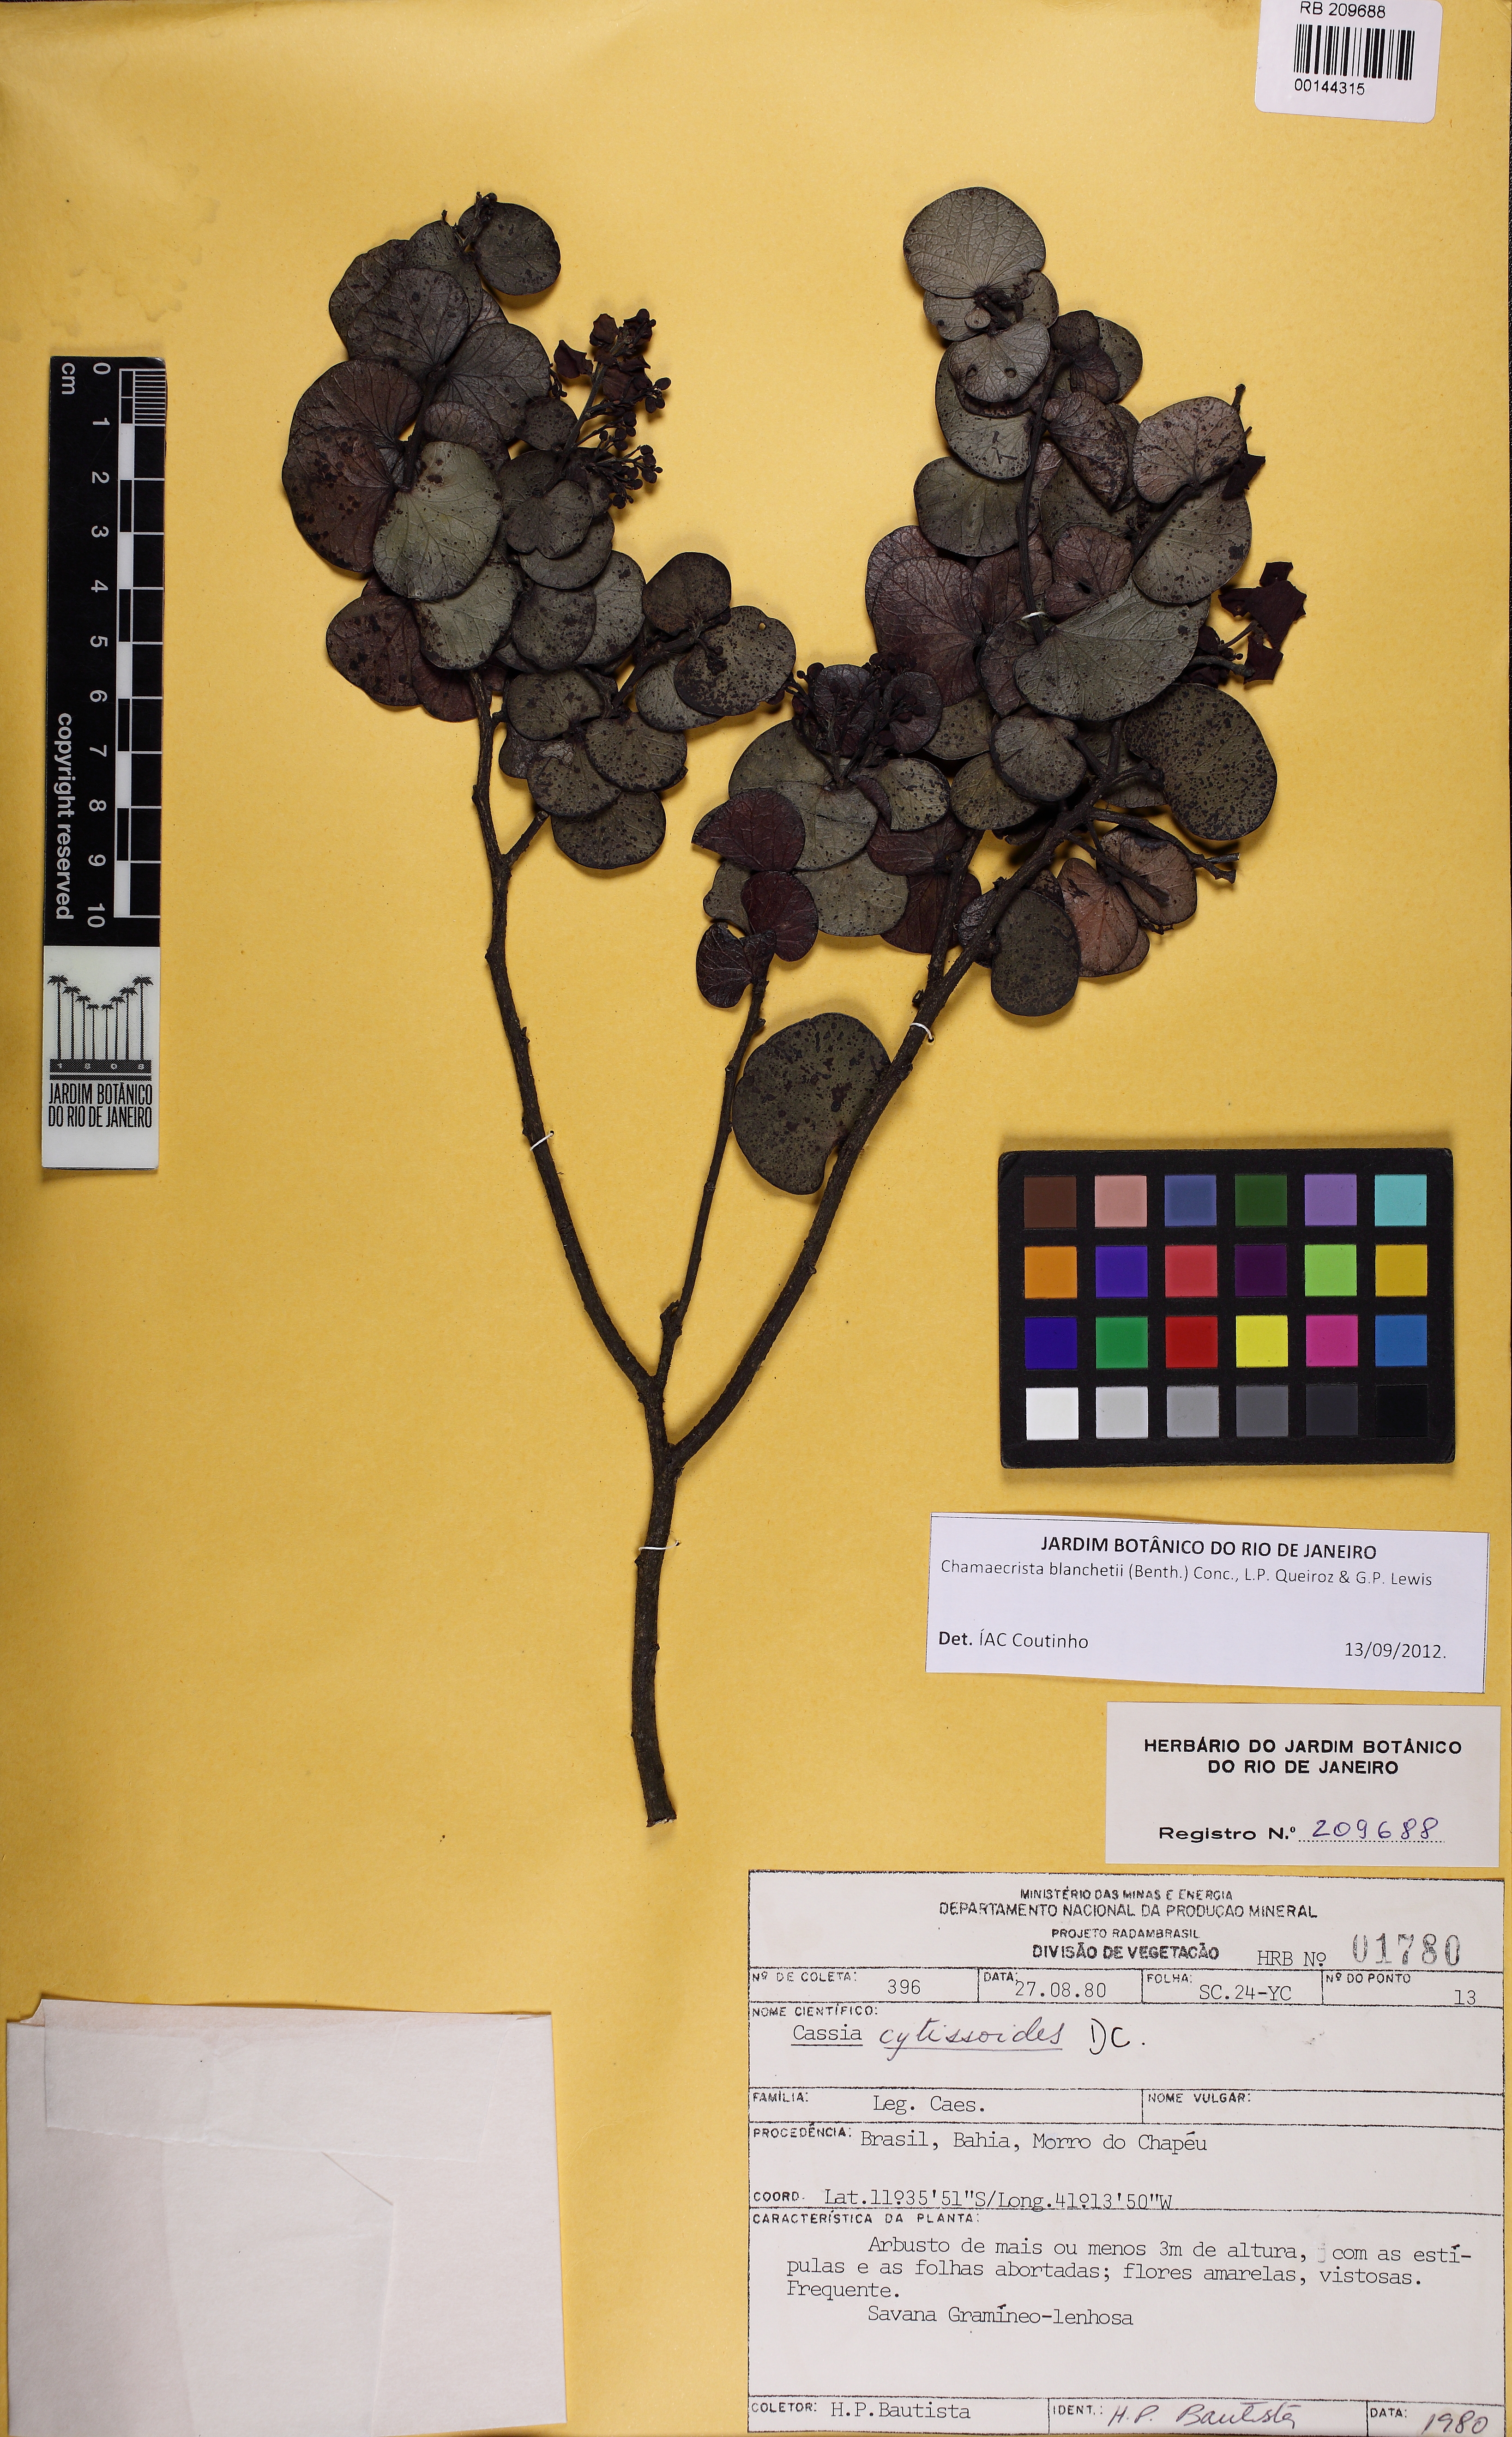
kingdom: Plantae
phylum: Tracheophyta
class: Magnoliopsida
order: Fabales
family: Fabaceae
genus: Chamaecrista
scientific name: Chamaecrista blanchetii
